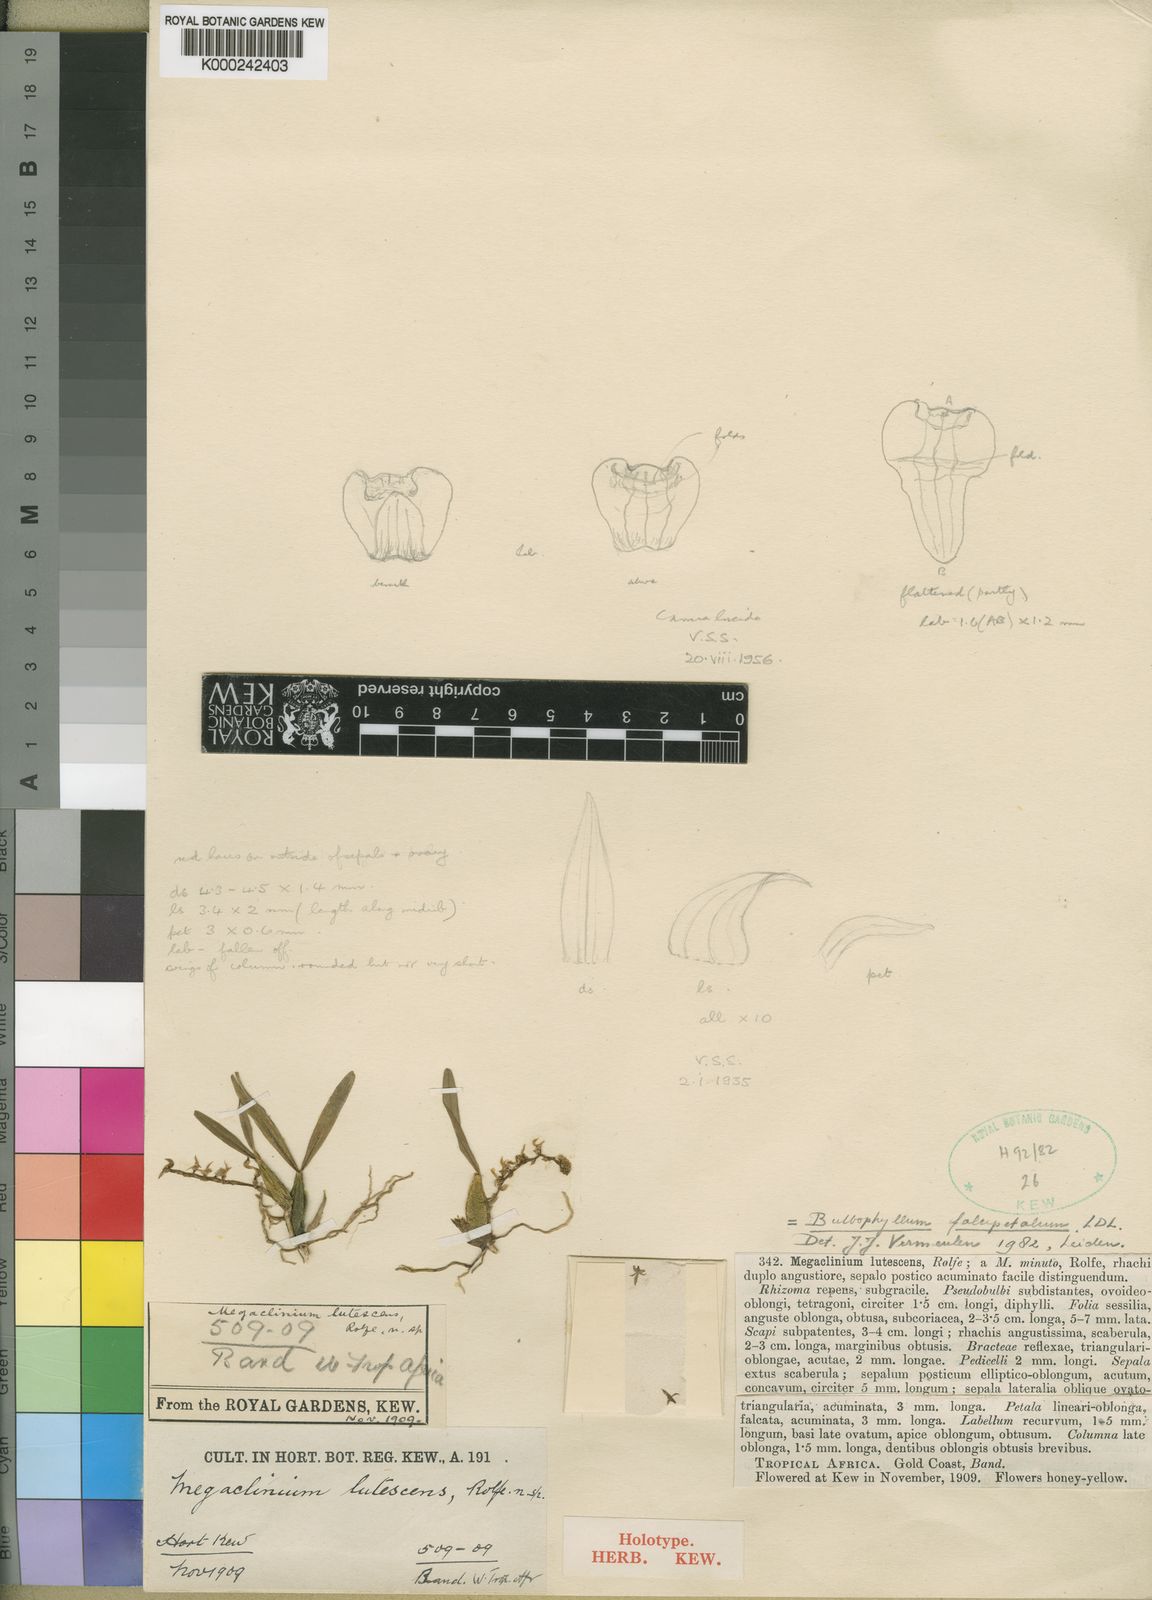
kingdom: Plantae
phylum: Tracheophyta
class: Liliopsida
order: Asparagales
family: Orchidaceae
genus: Bulbophyllum
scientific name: Bulbophyllum falcipetalum
